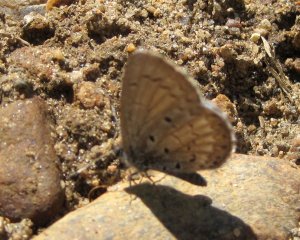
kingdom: Animalia
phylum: Arthropoda
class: Insecta
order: Lepidoptera
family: Lycaenidae
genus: Celastrina
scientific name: Celastrina serotina
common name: Cherry Gall Azure
